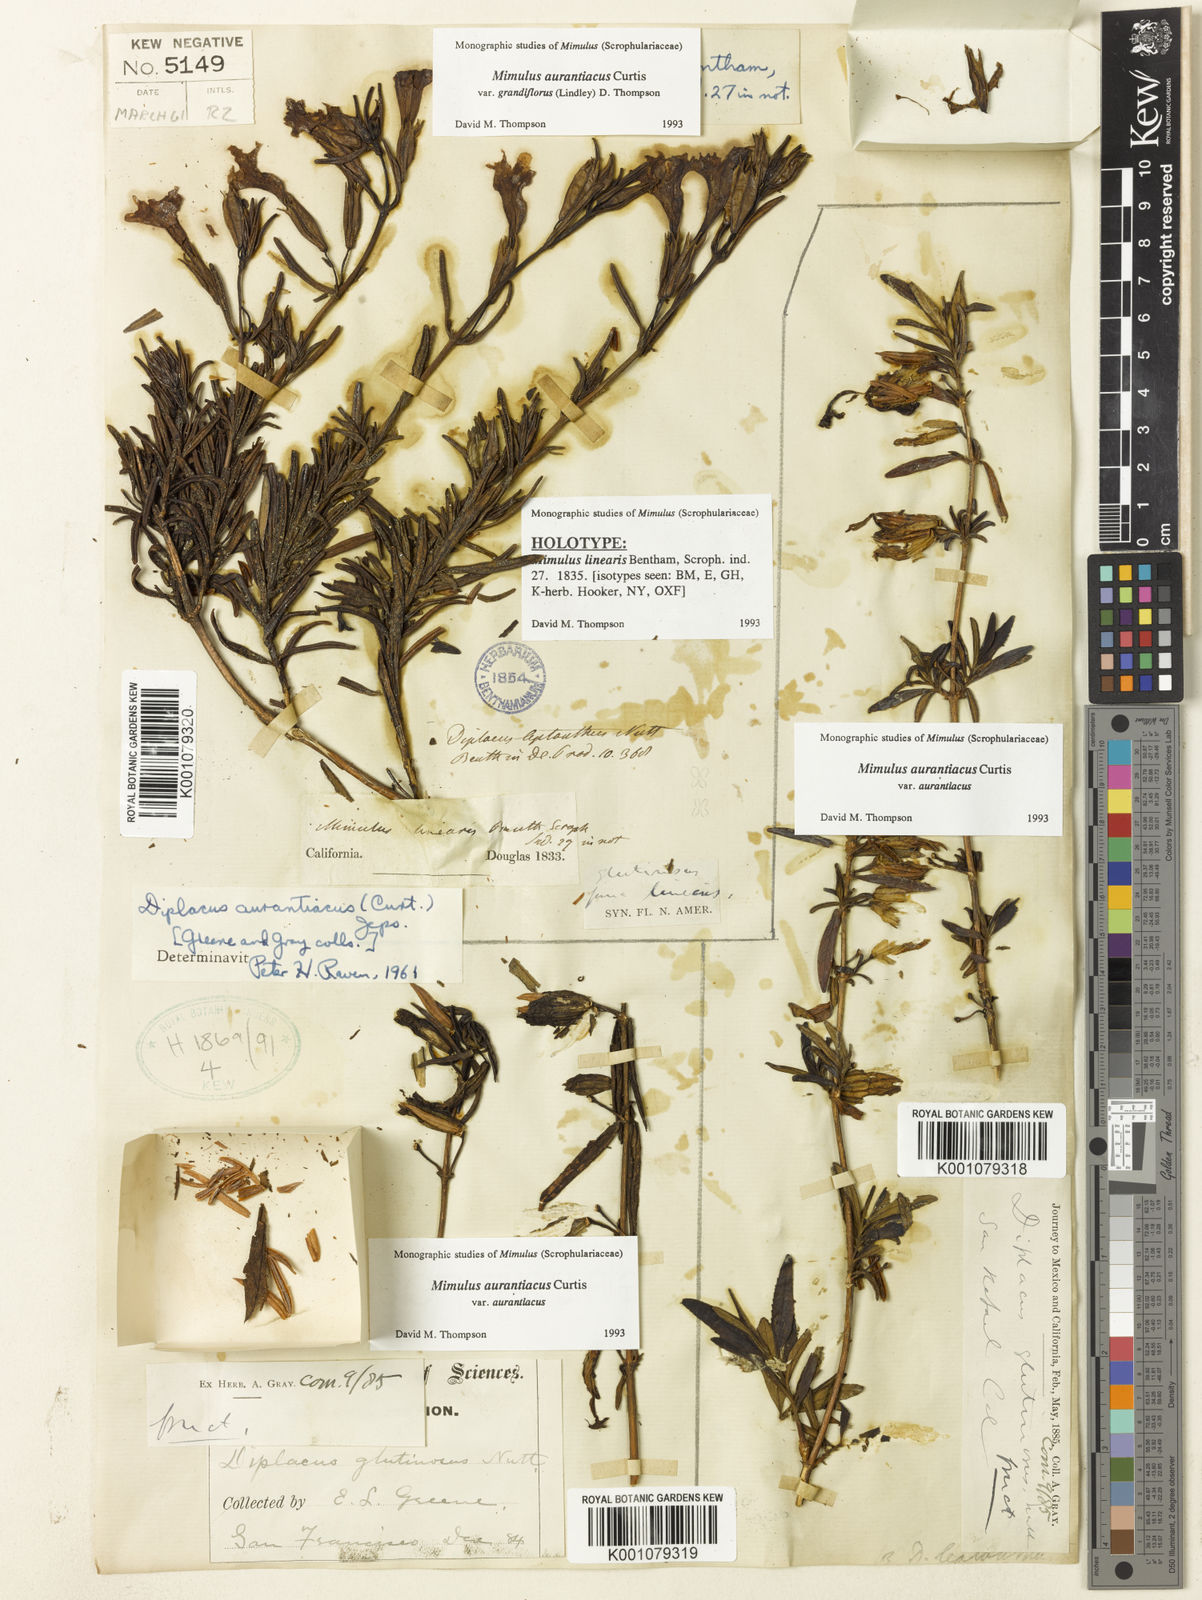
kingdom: Plantae
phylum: Tracheophyta
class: Magnoliopsida
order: Lamiales
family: Phrymaceae
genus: Diplacus
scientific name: Diplacus linearis
